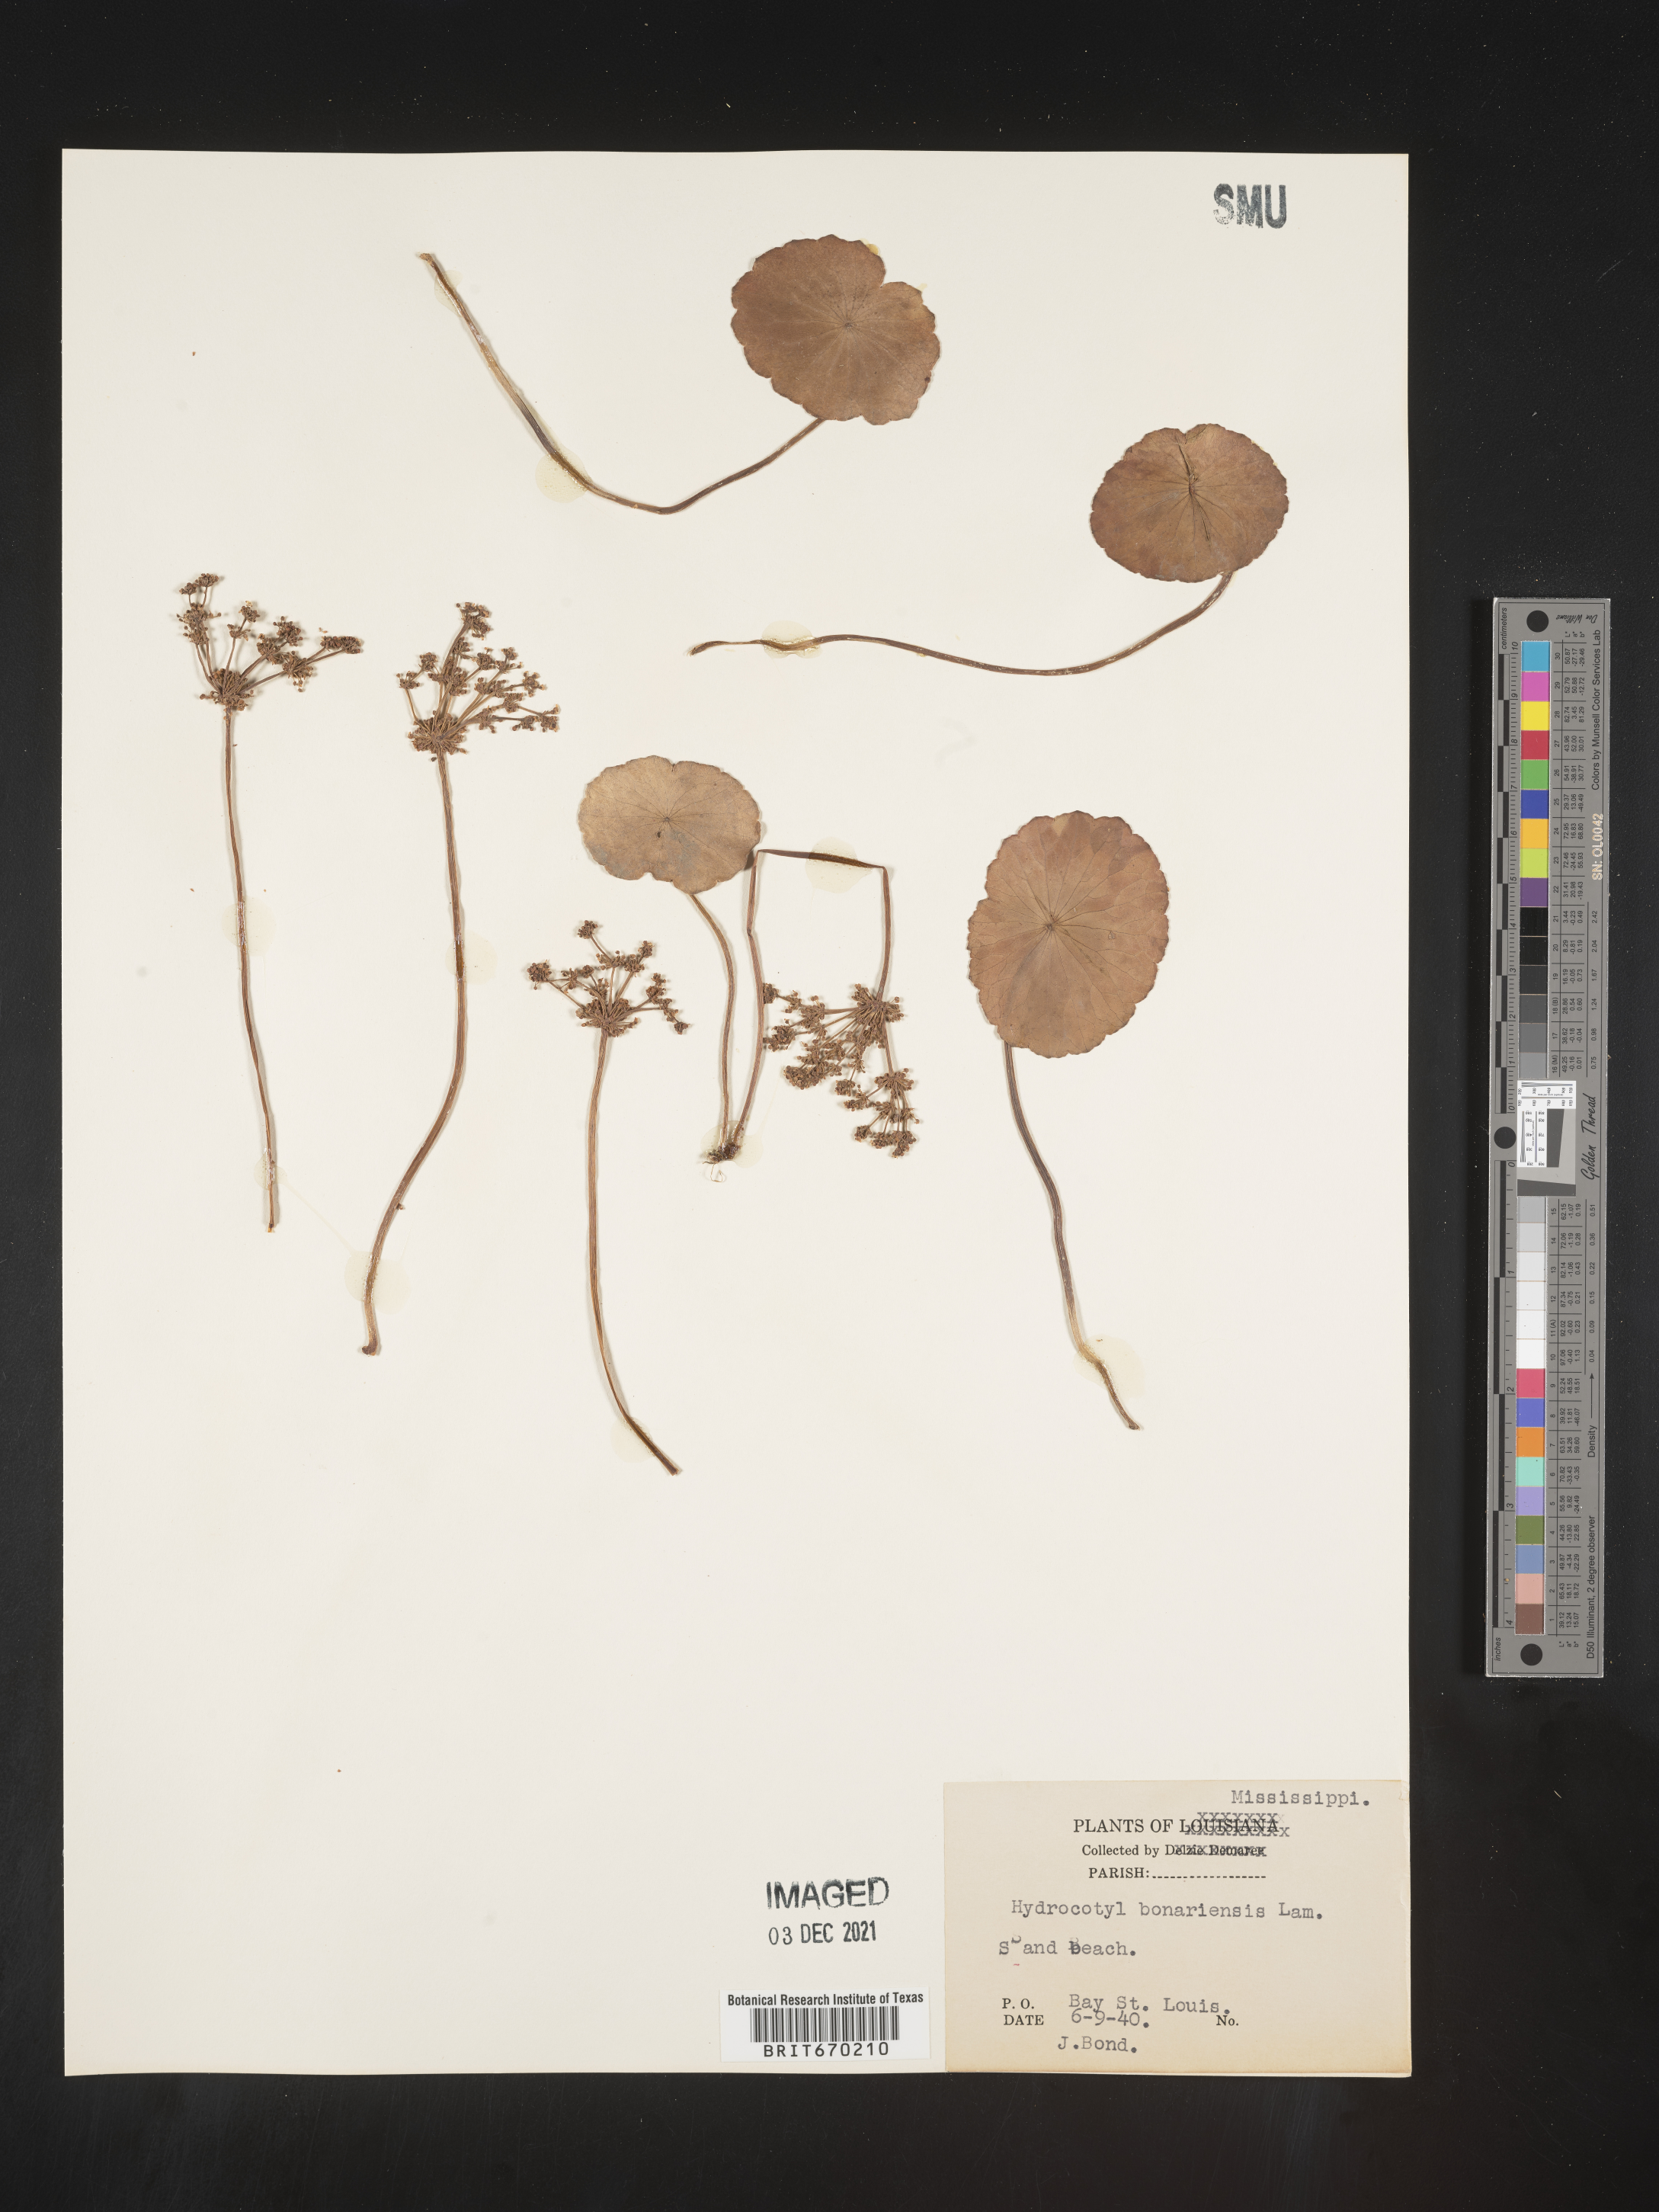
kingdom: Plantae
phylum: Tracheophyta
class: Magnoliopsida
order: Apiales
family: Araliaceae
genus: Hydrocotyle
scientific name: Hydrocotyle bonariensis
